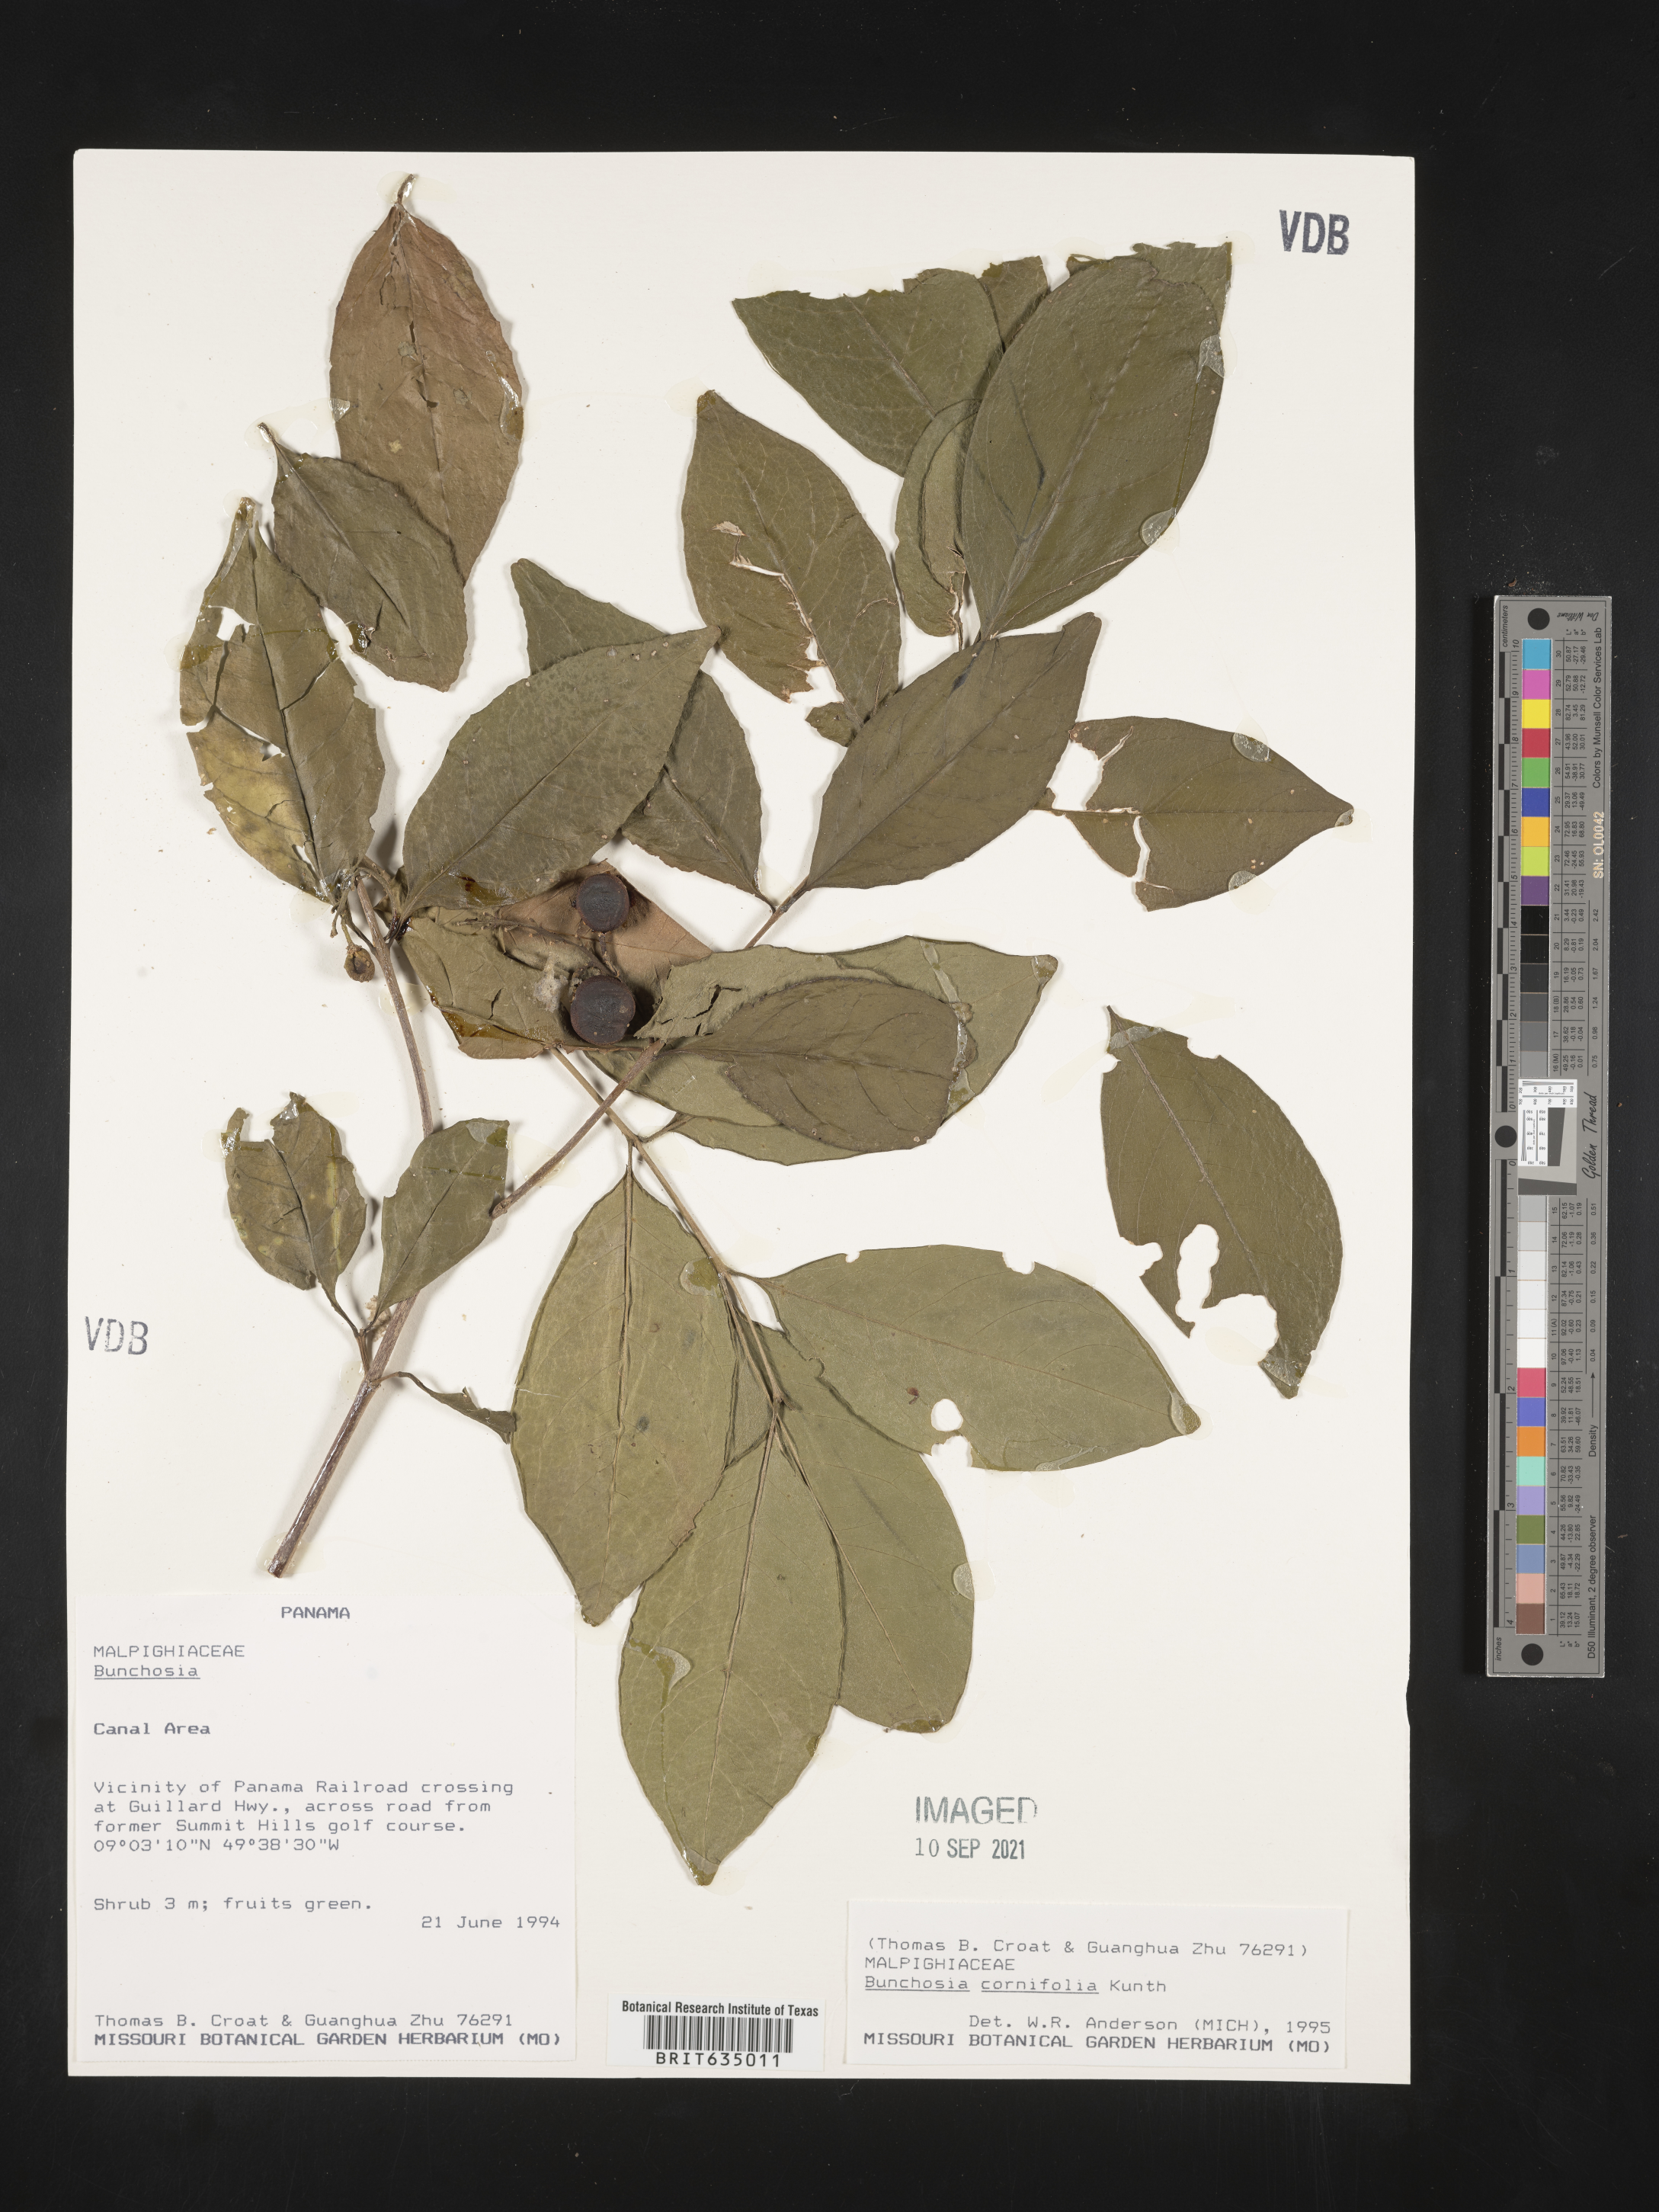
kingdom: Plantae
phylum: Tracheophyta
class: Magnoliopsida
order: Malpighiales
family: Malpighiaceae
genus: Bunchosia
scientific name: Bunchosia
